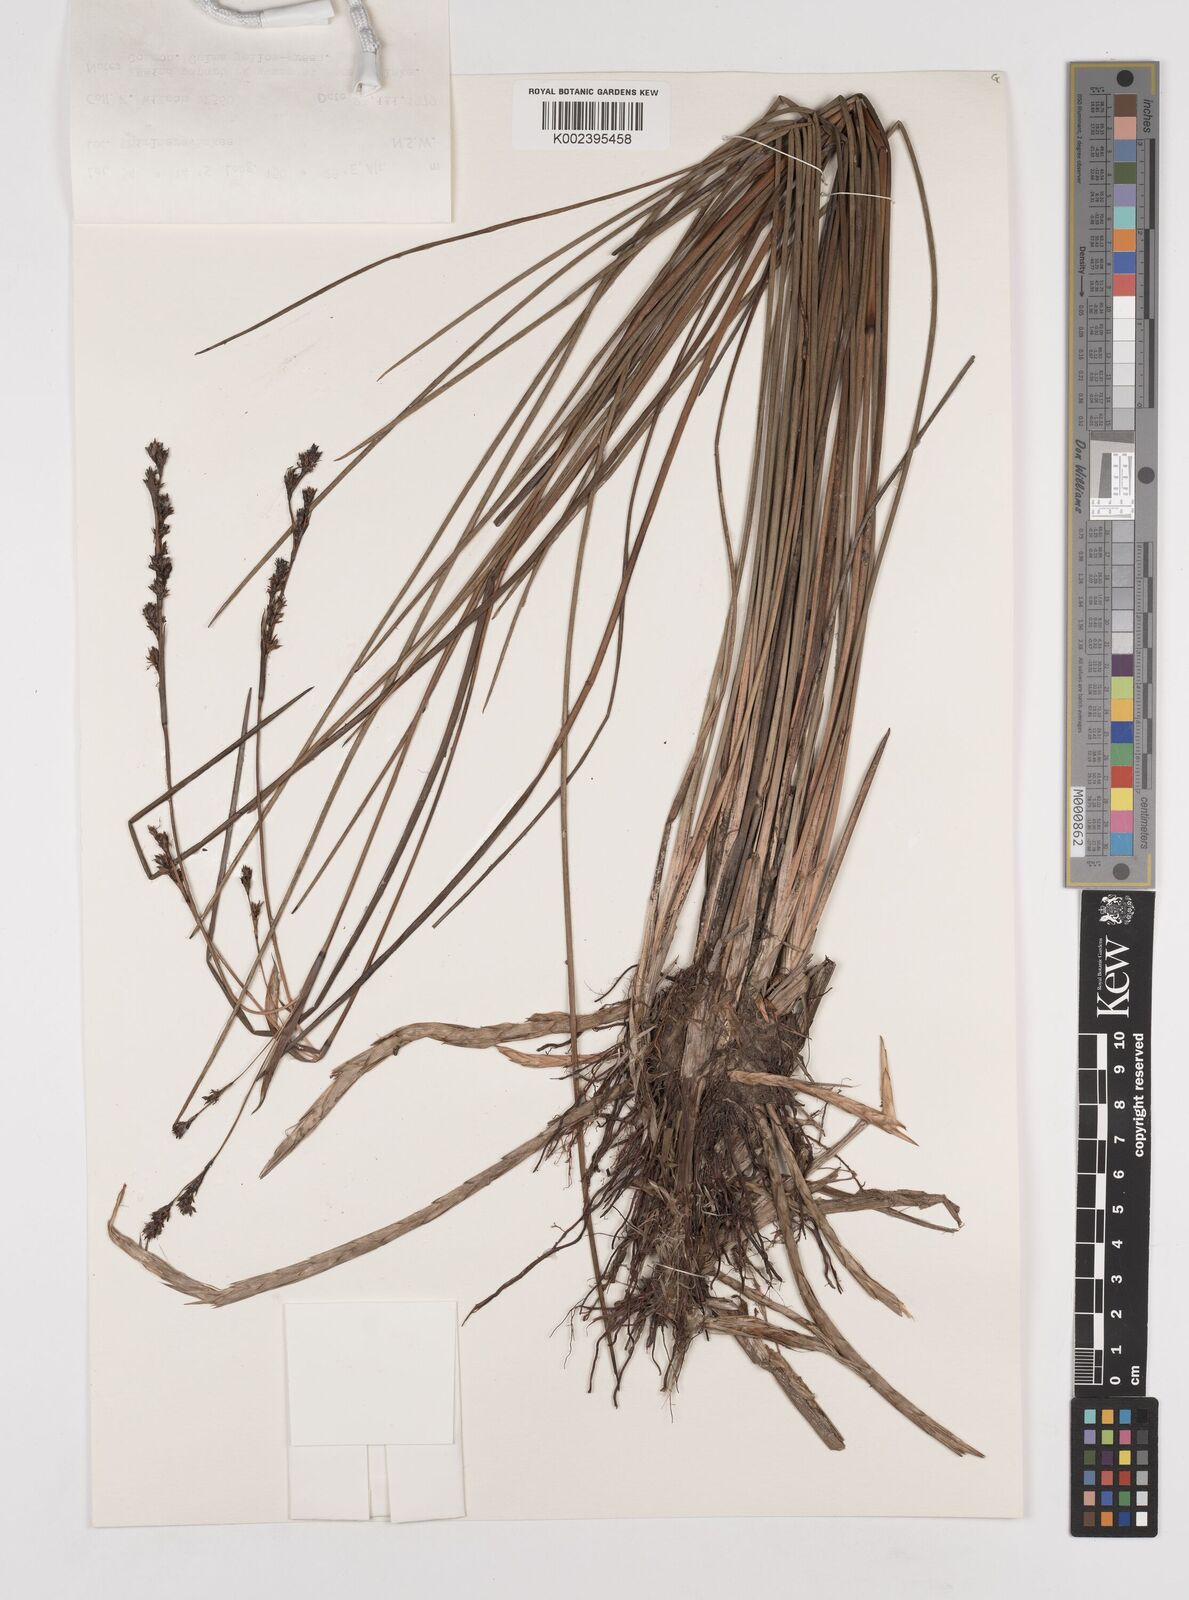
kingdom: Plantae
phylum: Tracheophyta
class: Liliopsida
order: Poales
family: Cyperaceae
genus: Machaerina
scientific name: Machaerina rubiginosa
